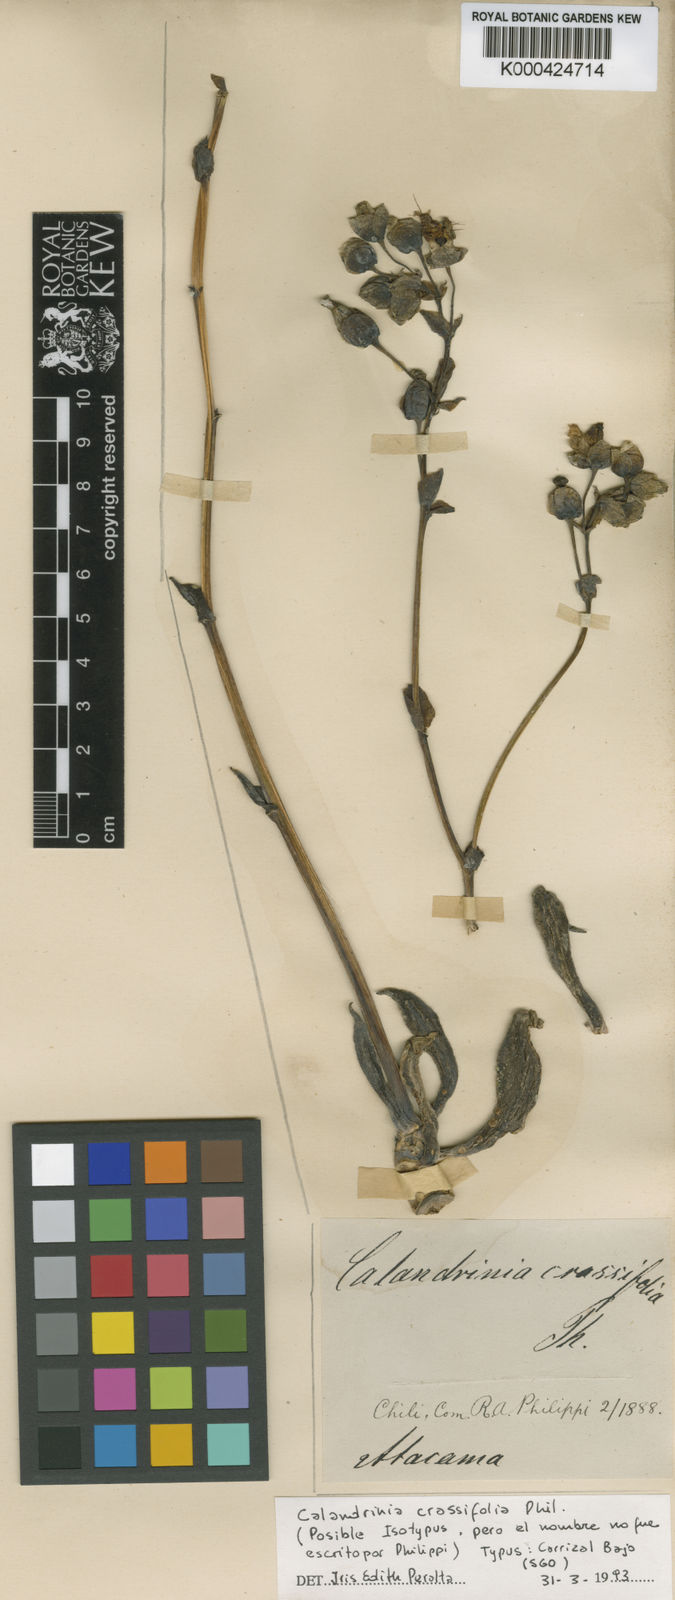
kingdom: Plantae
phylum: Tracheophyta
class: Magnoliopsida
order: Caryophyllales
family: Montiaceae
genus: Cistanthe
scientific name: Cistanthe
